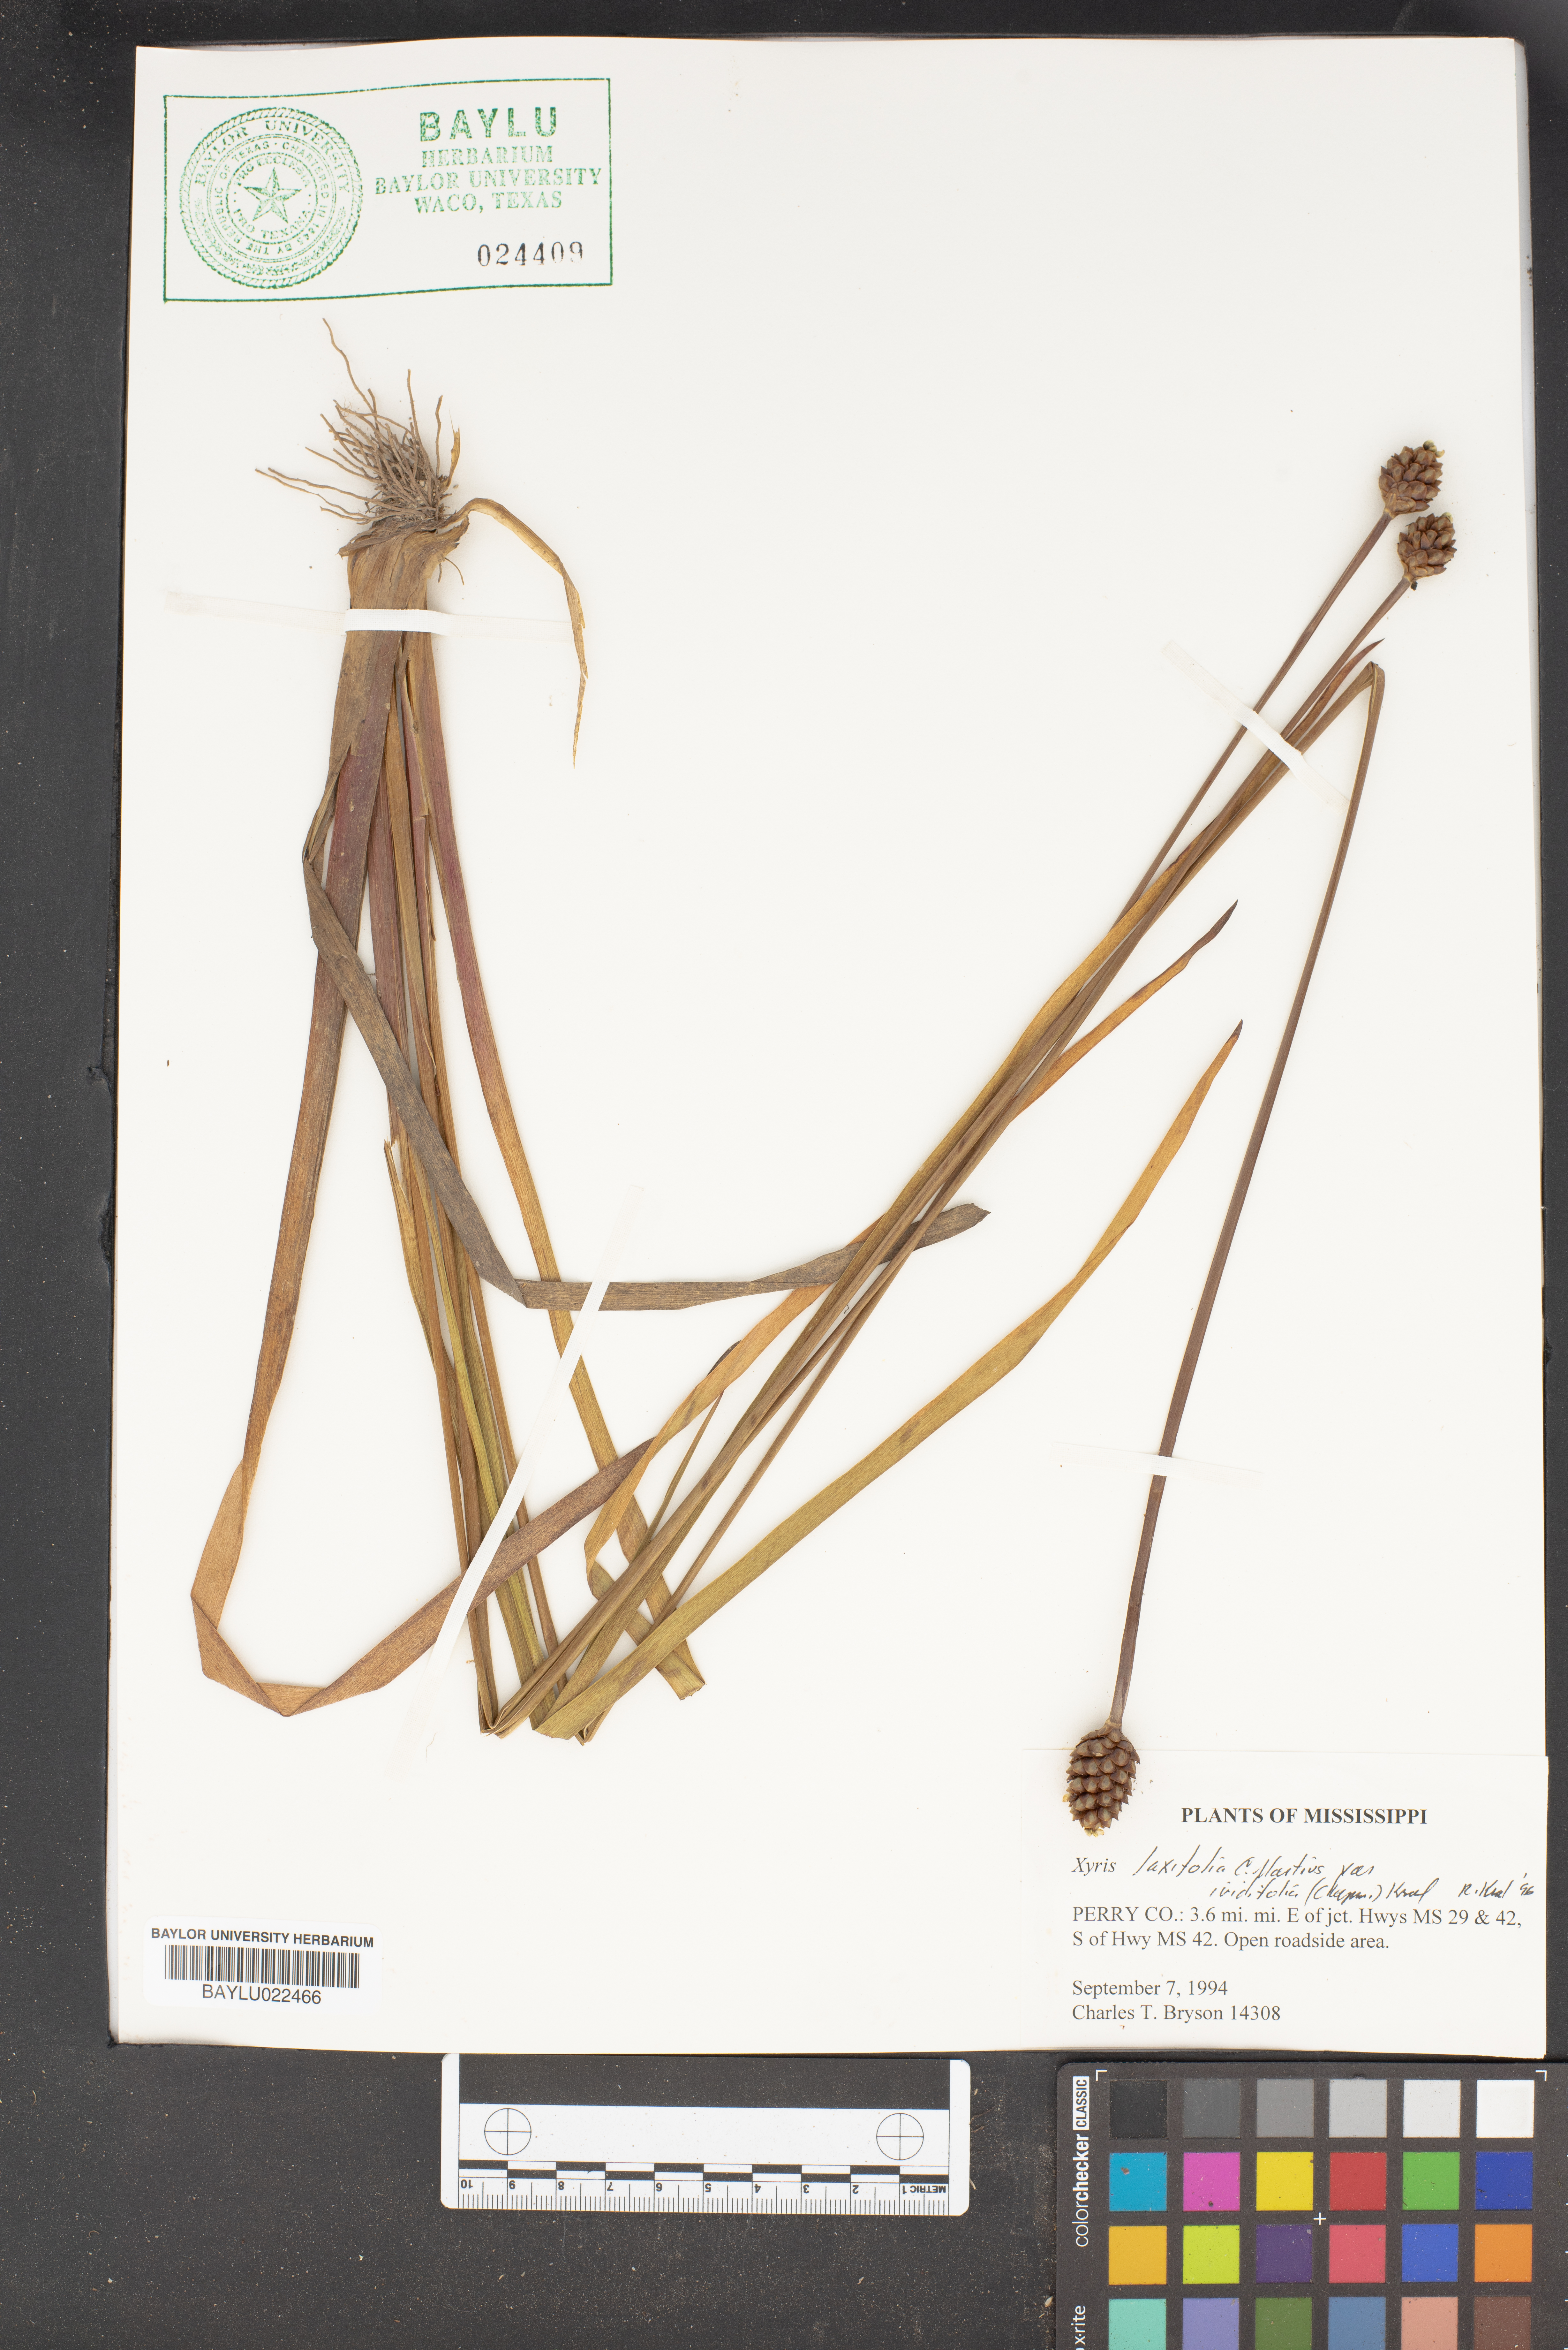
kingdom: Plantae
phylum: Tracheophyta
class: Liliopsida
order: Poales
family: Xyridaceae
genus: Xyris
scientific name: Xyris laxifolia
